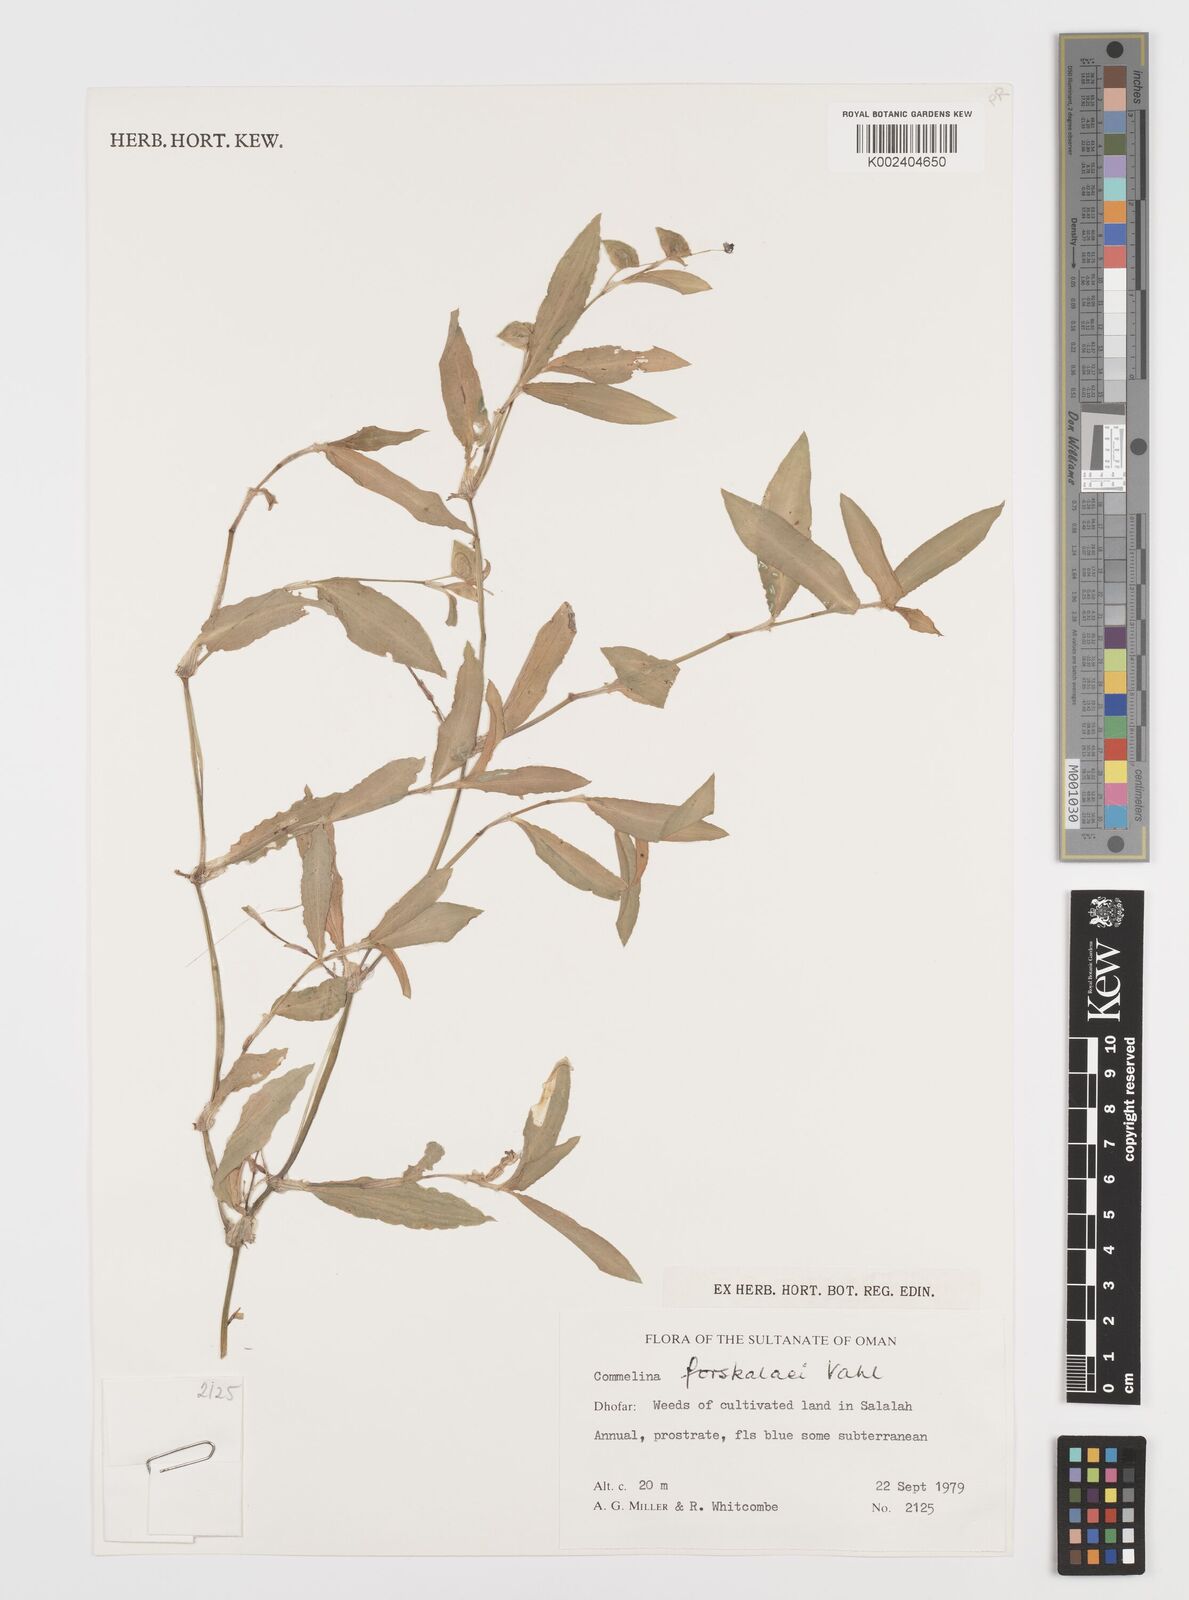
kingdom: Plantae
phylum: Tracheophyta
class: Liliopsida
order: Commelinales
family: Commelinaceae
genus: Commelina
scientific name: Commelina forskaolii
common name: Rat's ear
